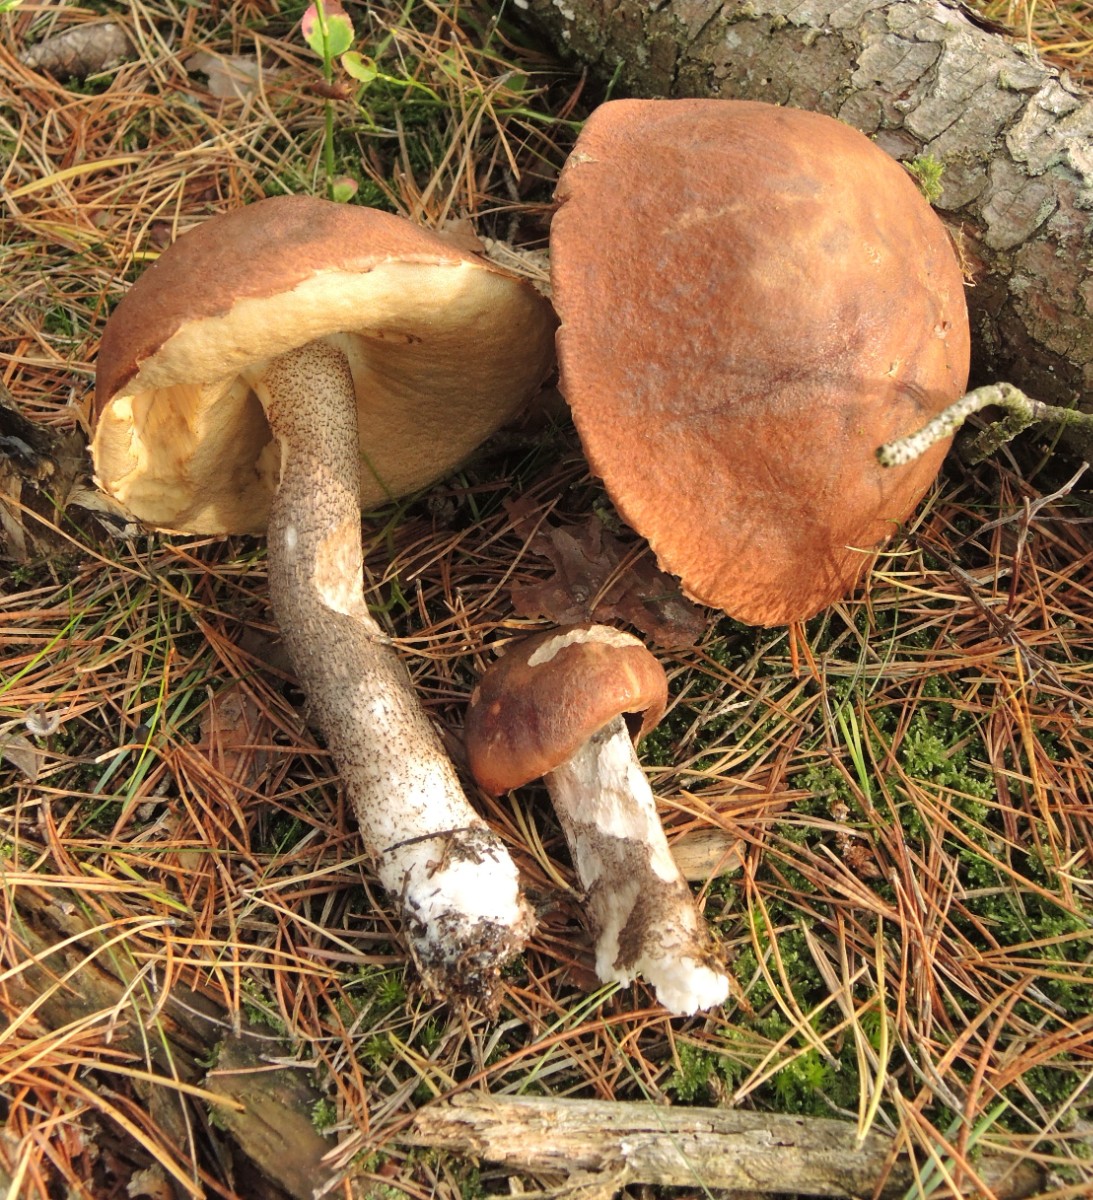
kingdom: Fungi
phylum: Basidiomycota
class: Agaricomycetes
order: Boletales
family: Boletaceae
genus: Leccinum
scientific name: Leccinum vulpinum
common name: fyrre-skælrørhat
